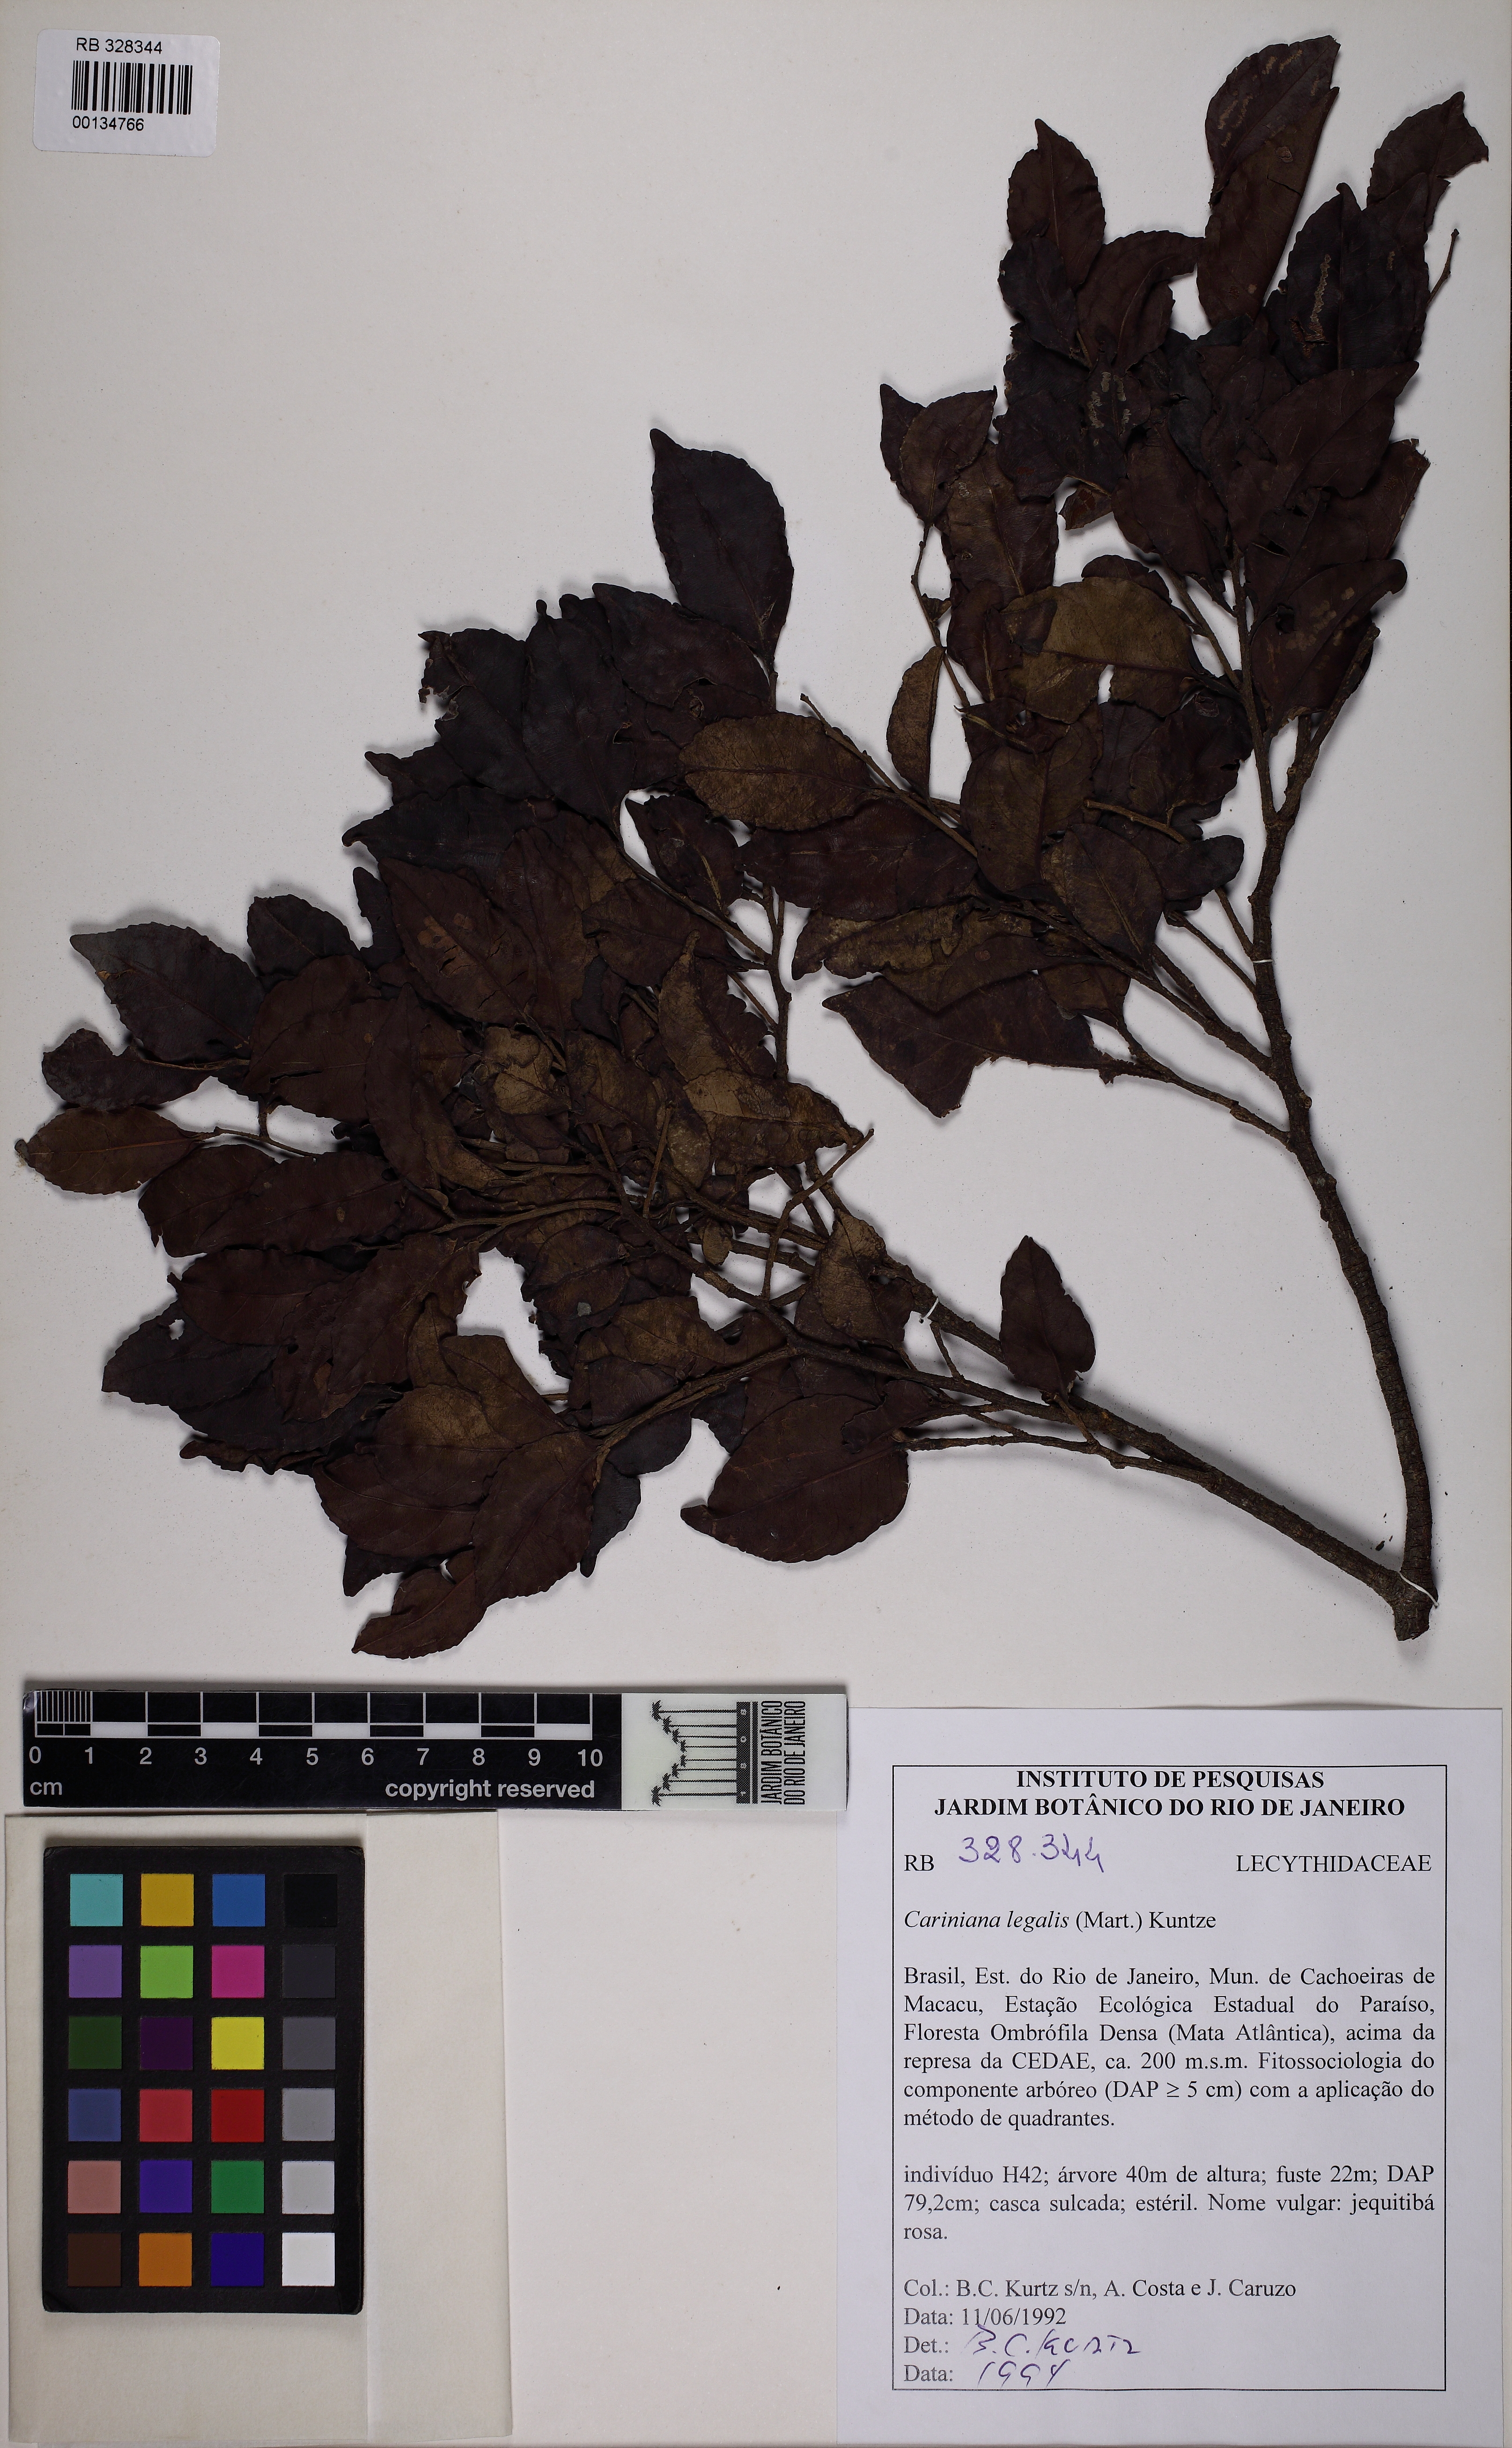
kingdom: Plantae
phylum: Tracheophyta
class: Magnoliopsida
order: Ericales
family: Lecythidaceae
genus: Cariniana
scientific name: Cariniana legalis
